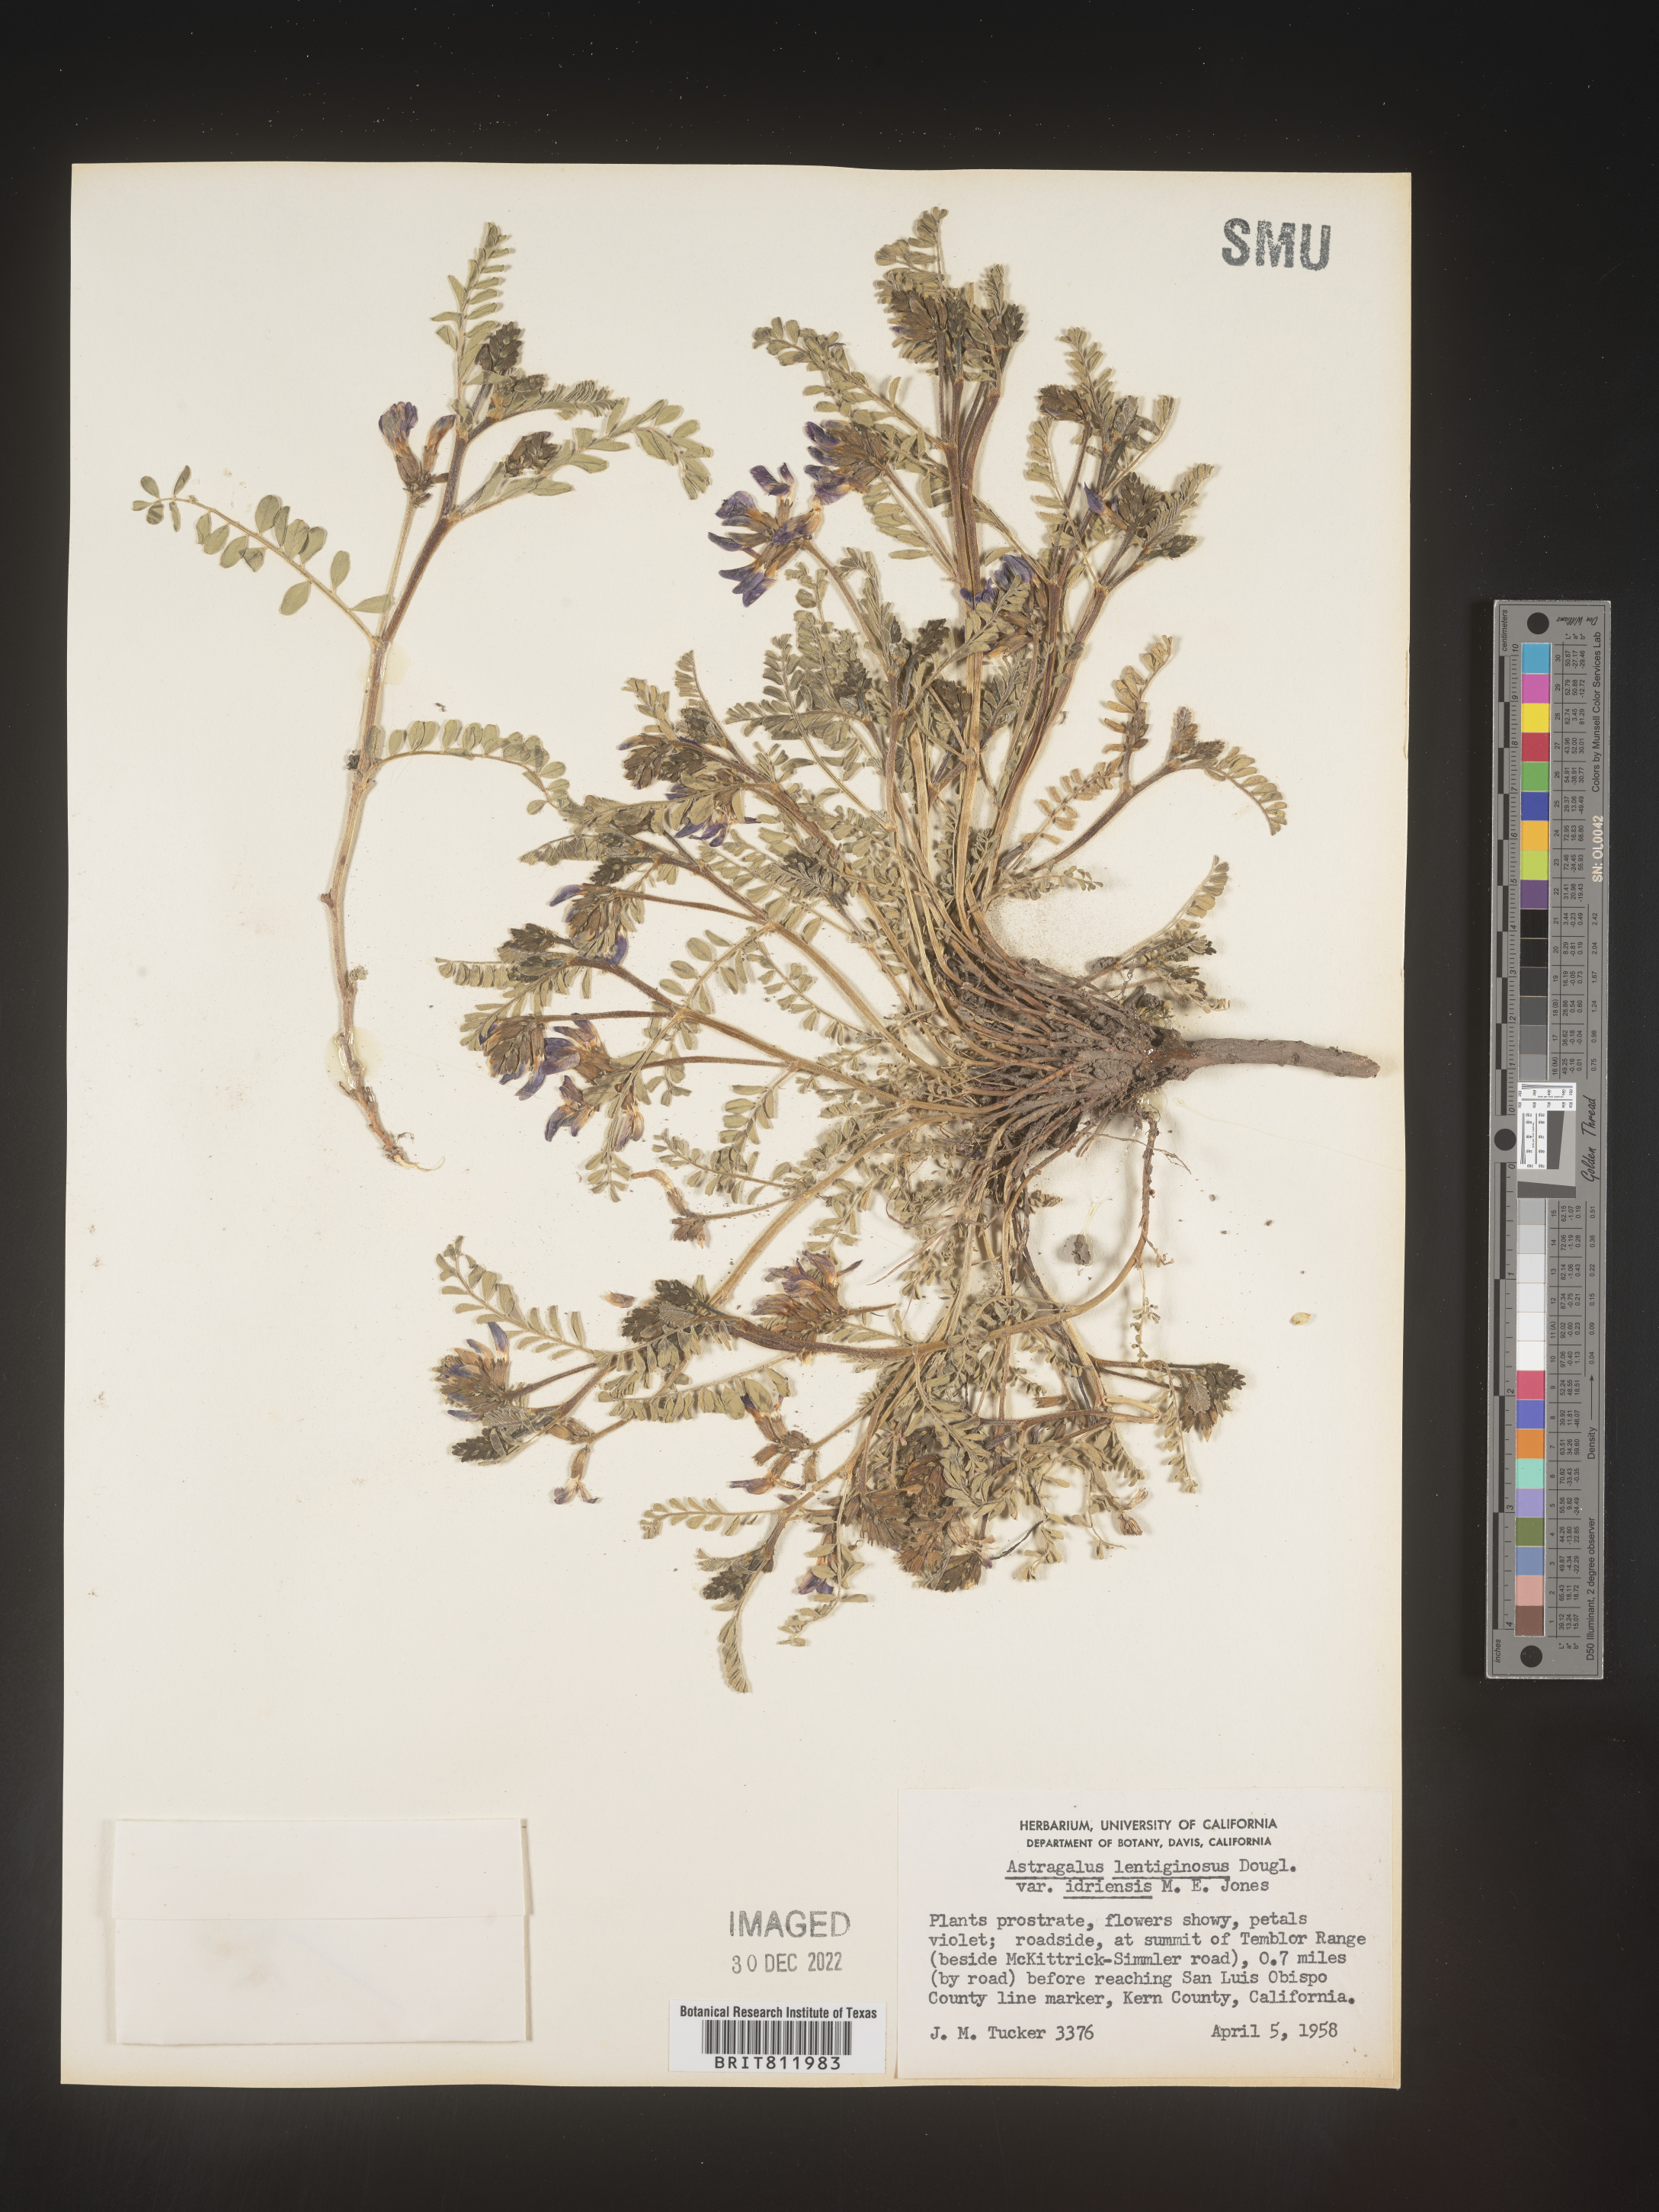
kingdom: Plantae
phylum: Tracheophyta
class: Magnoliopsida
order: Fabales
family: Fabaceae
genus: Astragalus
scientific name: Astragalus lentiginosus
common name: Freckled milkvetch
